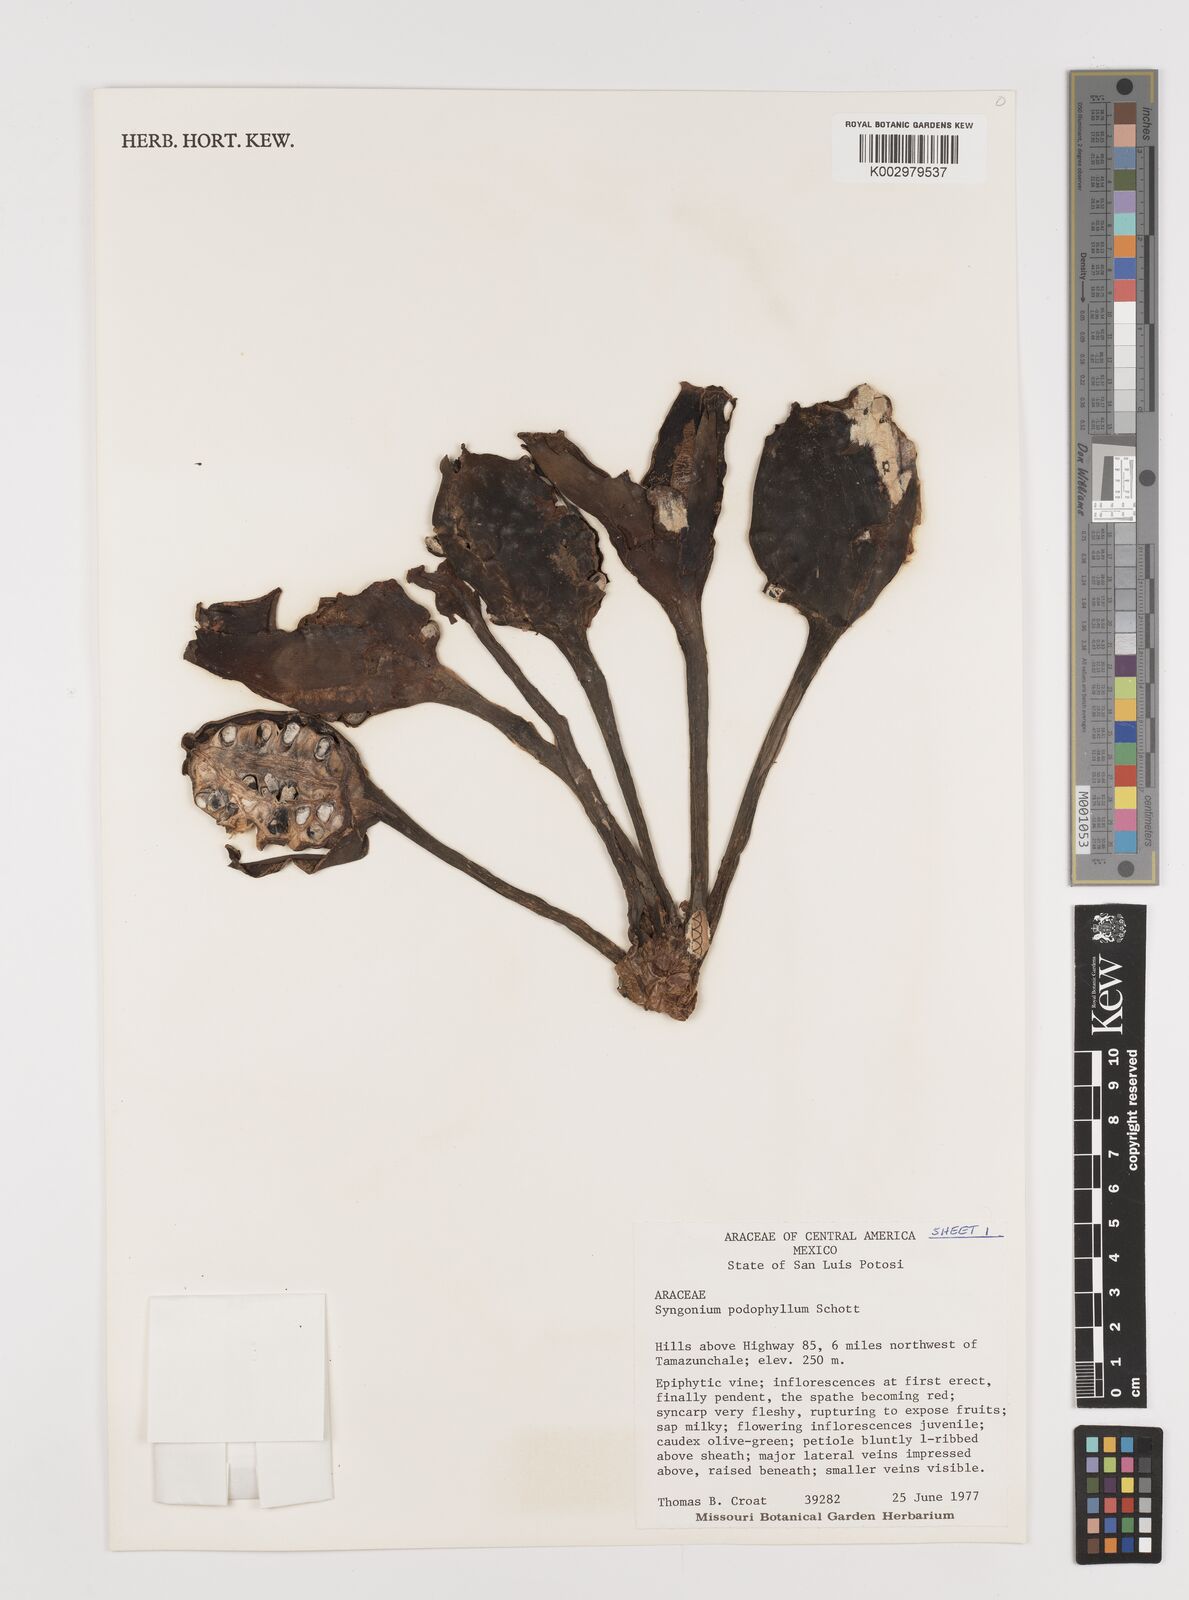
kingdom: Plantae
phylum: Tracheophyta
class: Liliopsida
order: Alismatales
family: Araceae
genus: Syngonium
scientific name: Syngonium podophyllum
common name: American evergreen
